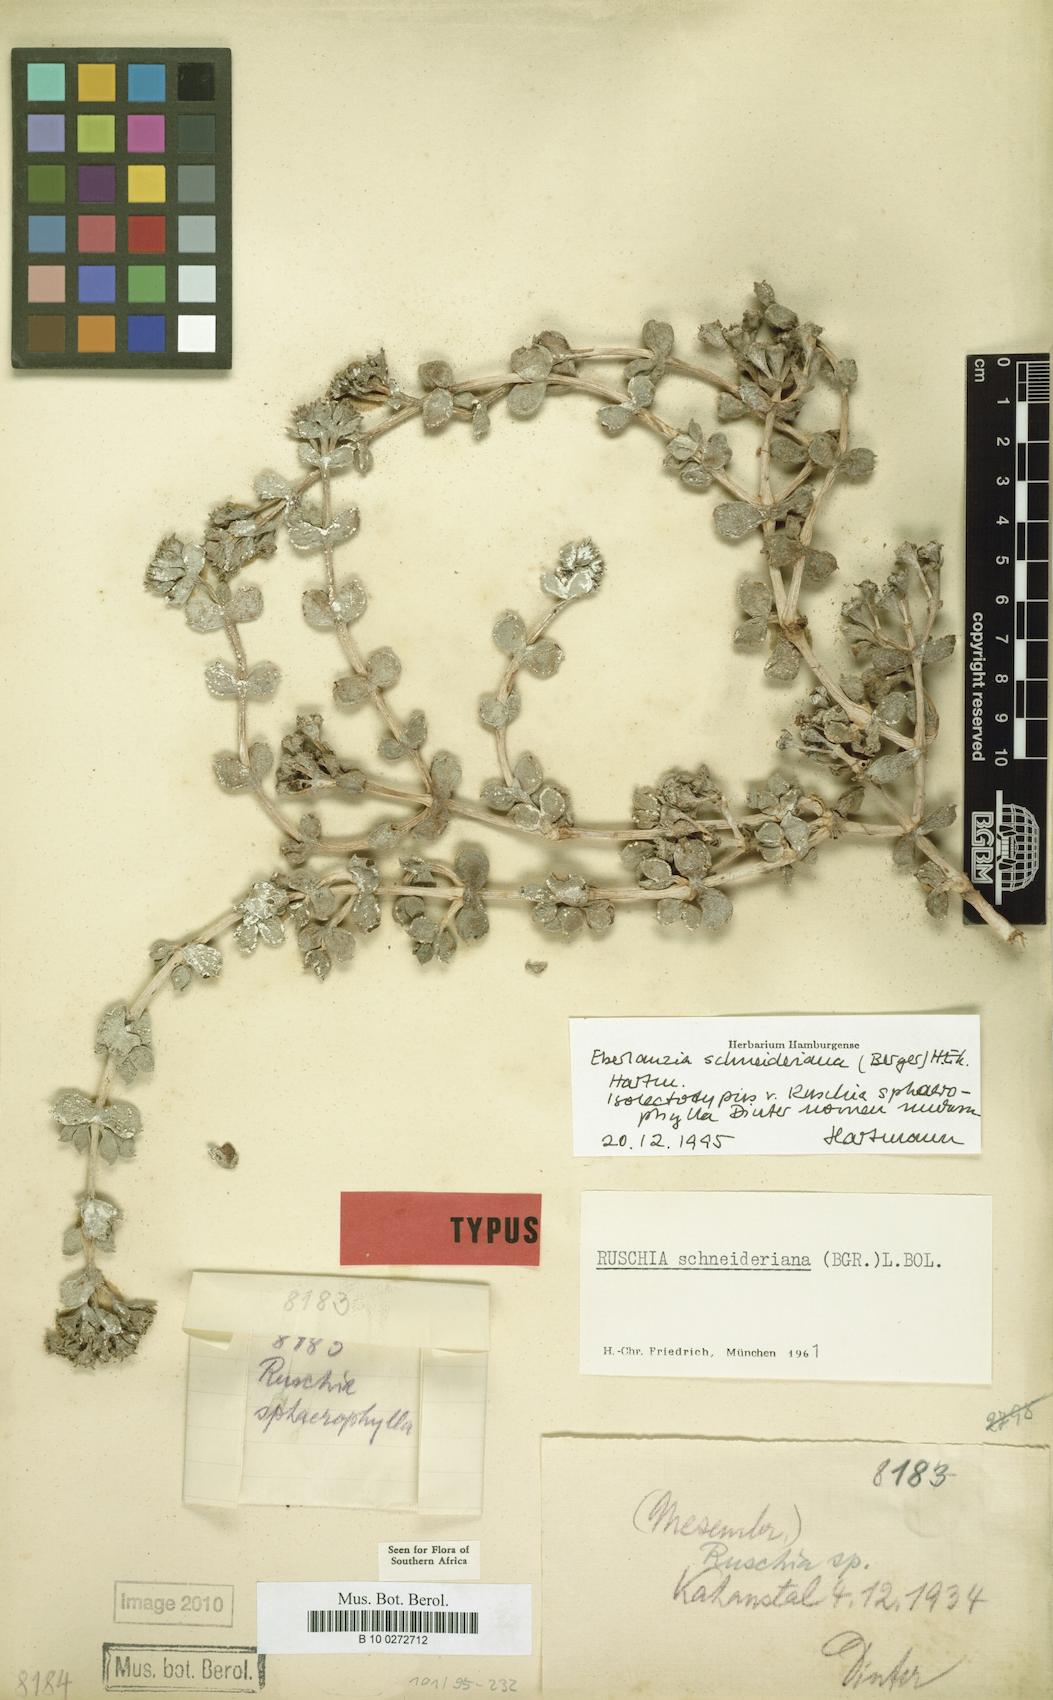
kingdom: Plantae
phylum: Tracheophyta
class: Magnoliopsida
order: Caryophyllales
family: Aizoaceae
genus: Eberlanzia
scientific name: Eberlanzia schneideriana
